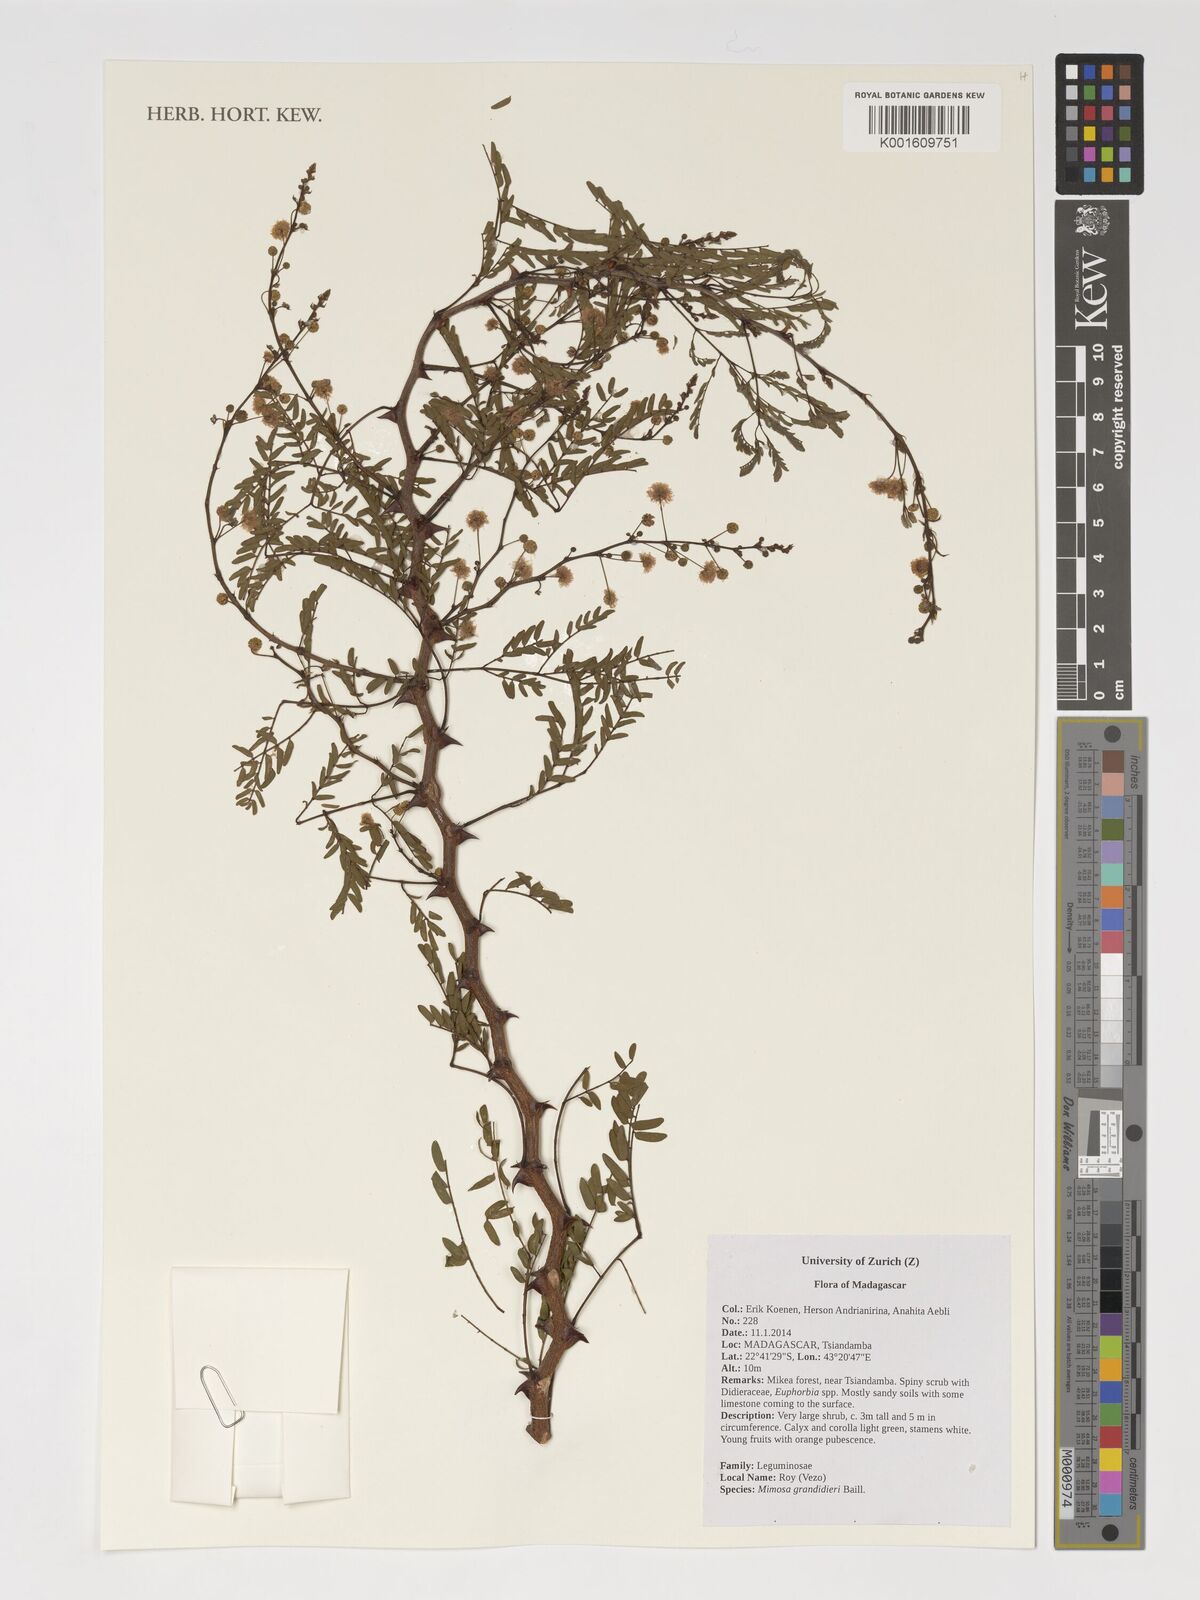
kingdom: Plantae
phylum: Tracheophyta
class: Magnoliopsida
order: Fabales
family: Fabaceae
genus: Mimosa
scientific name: Mimosa grandidieri
